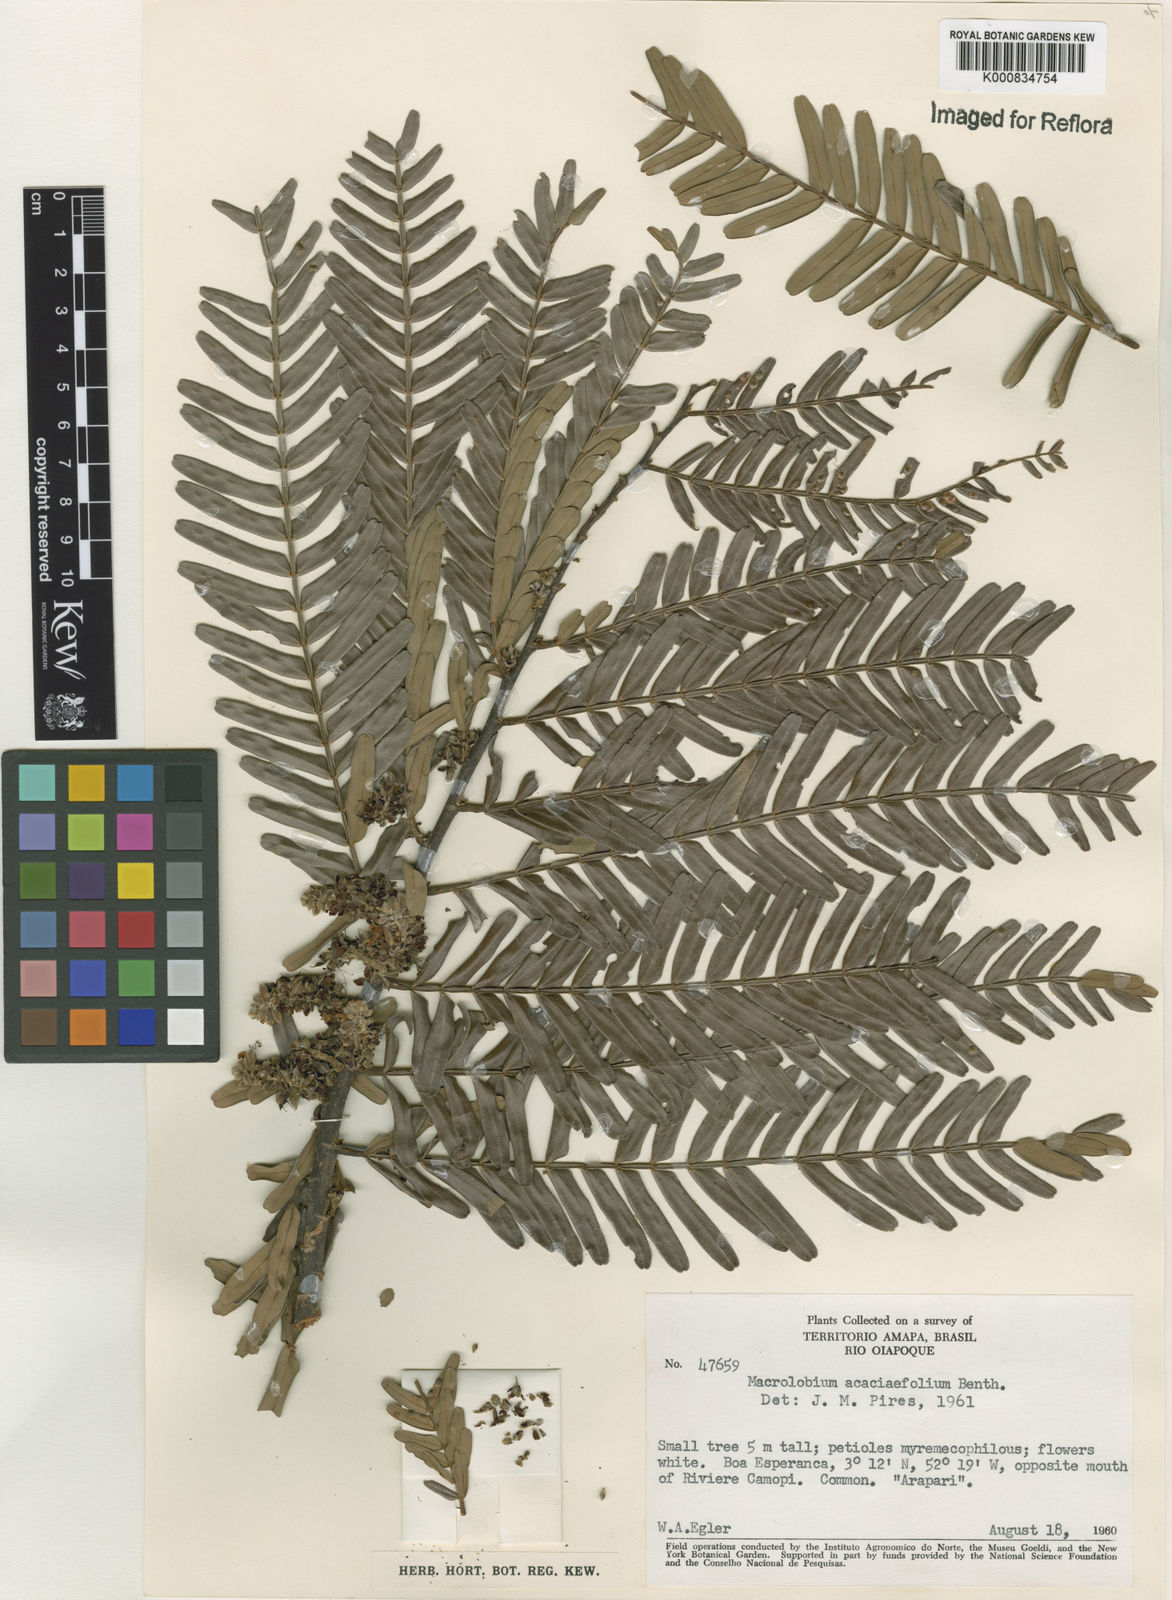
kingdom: Plantae
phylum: Tracheophyta
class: Magnoliopsida
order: Fabales
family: Fabaceae
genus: Macrolobium
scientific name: Macrolobium acaciifolium
